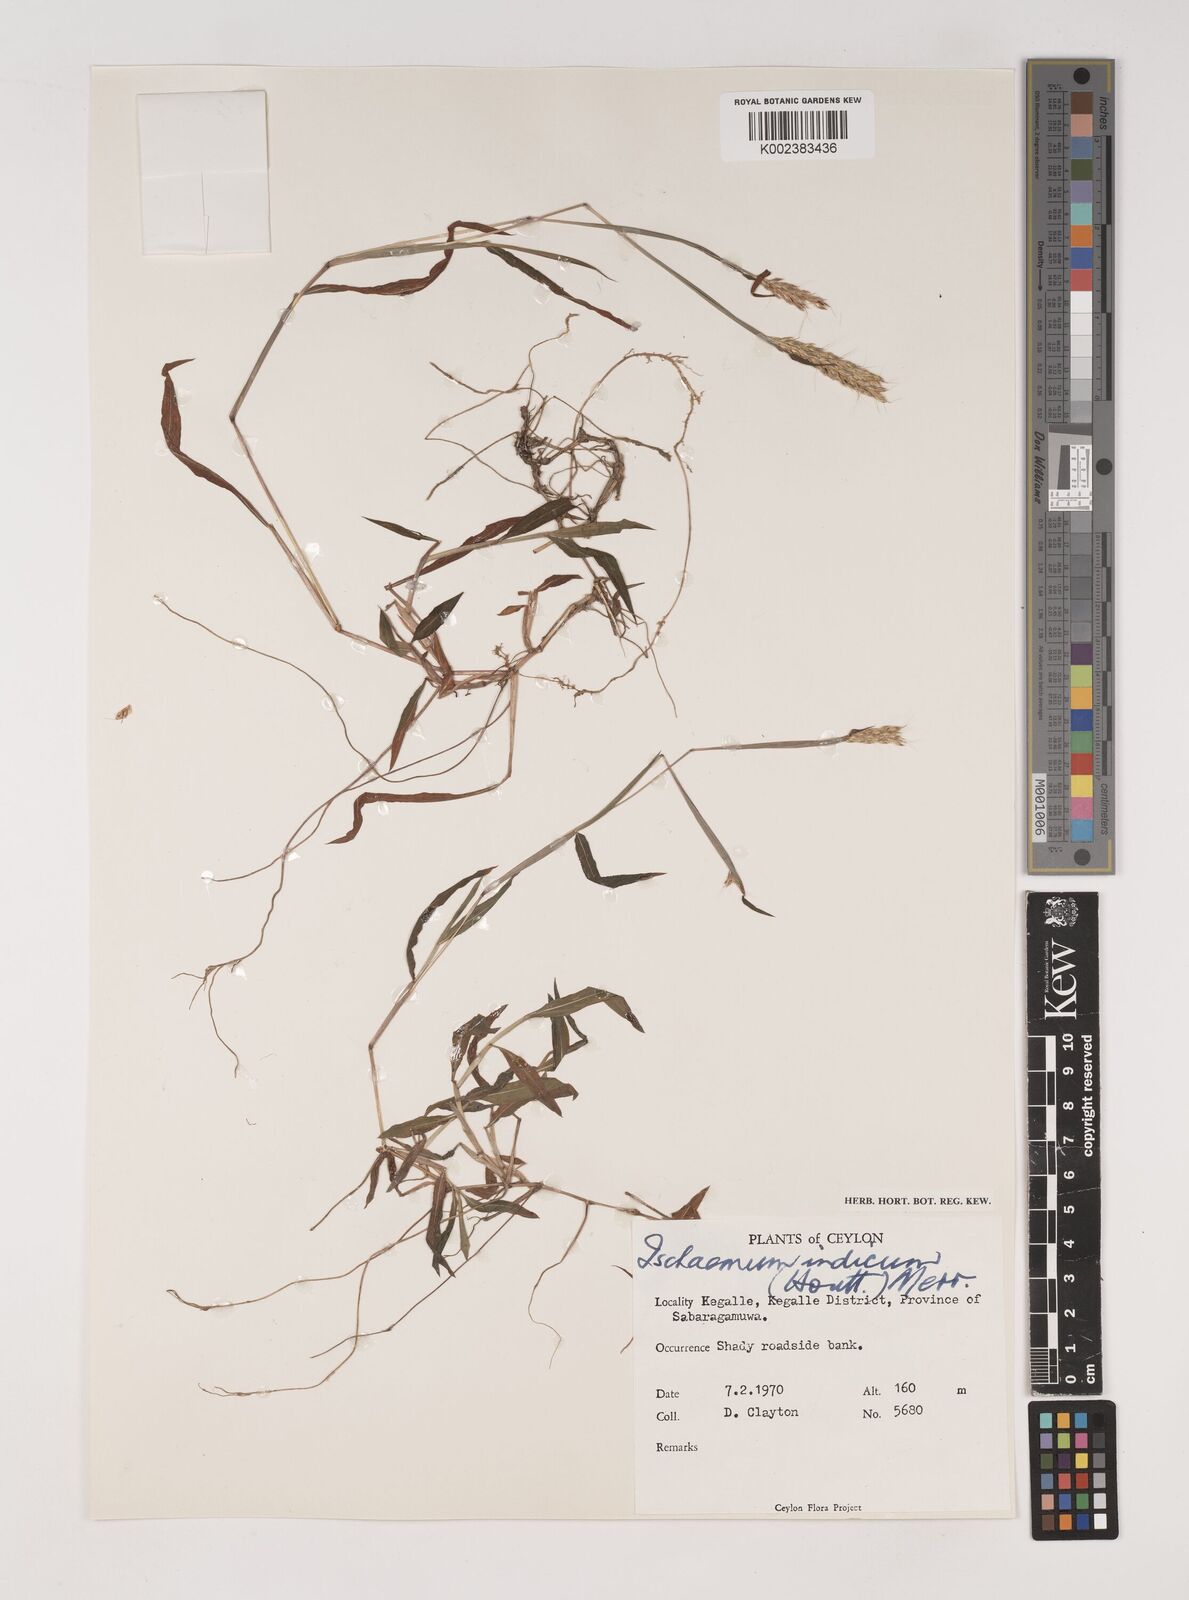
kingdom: Plantae
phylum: Tracheophyta
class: Liliopsida
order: Poales
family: Poaceae
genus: Polytrias
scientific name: Polytrias indica
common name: Indian murainagrass
